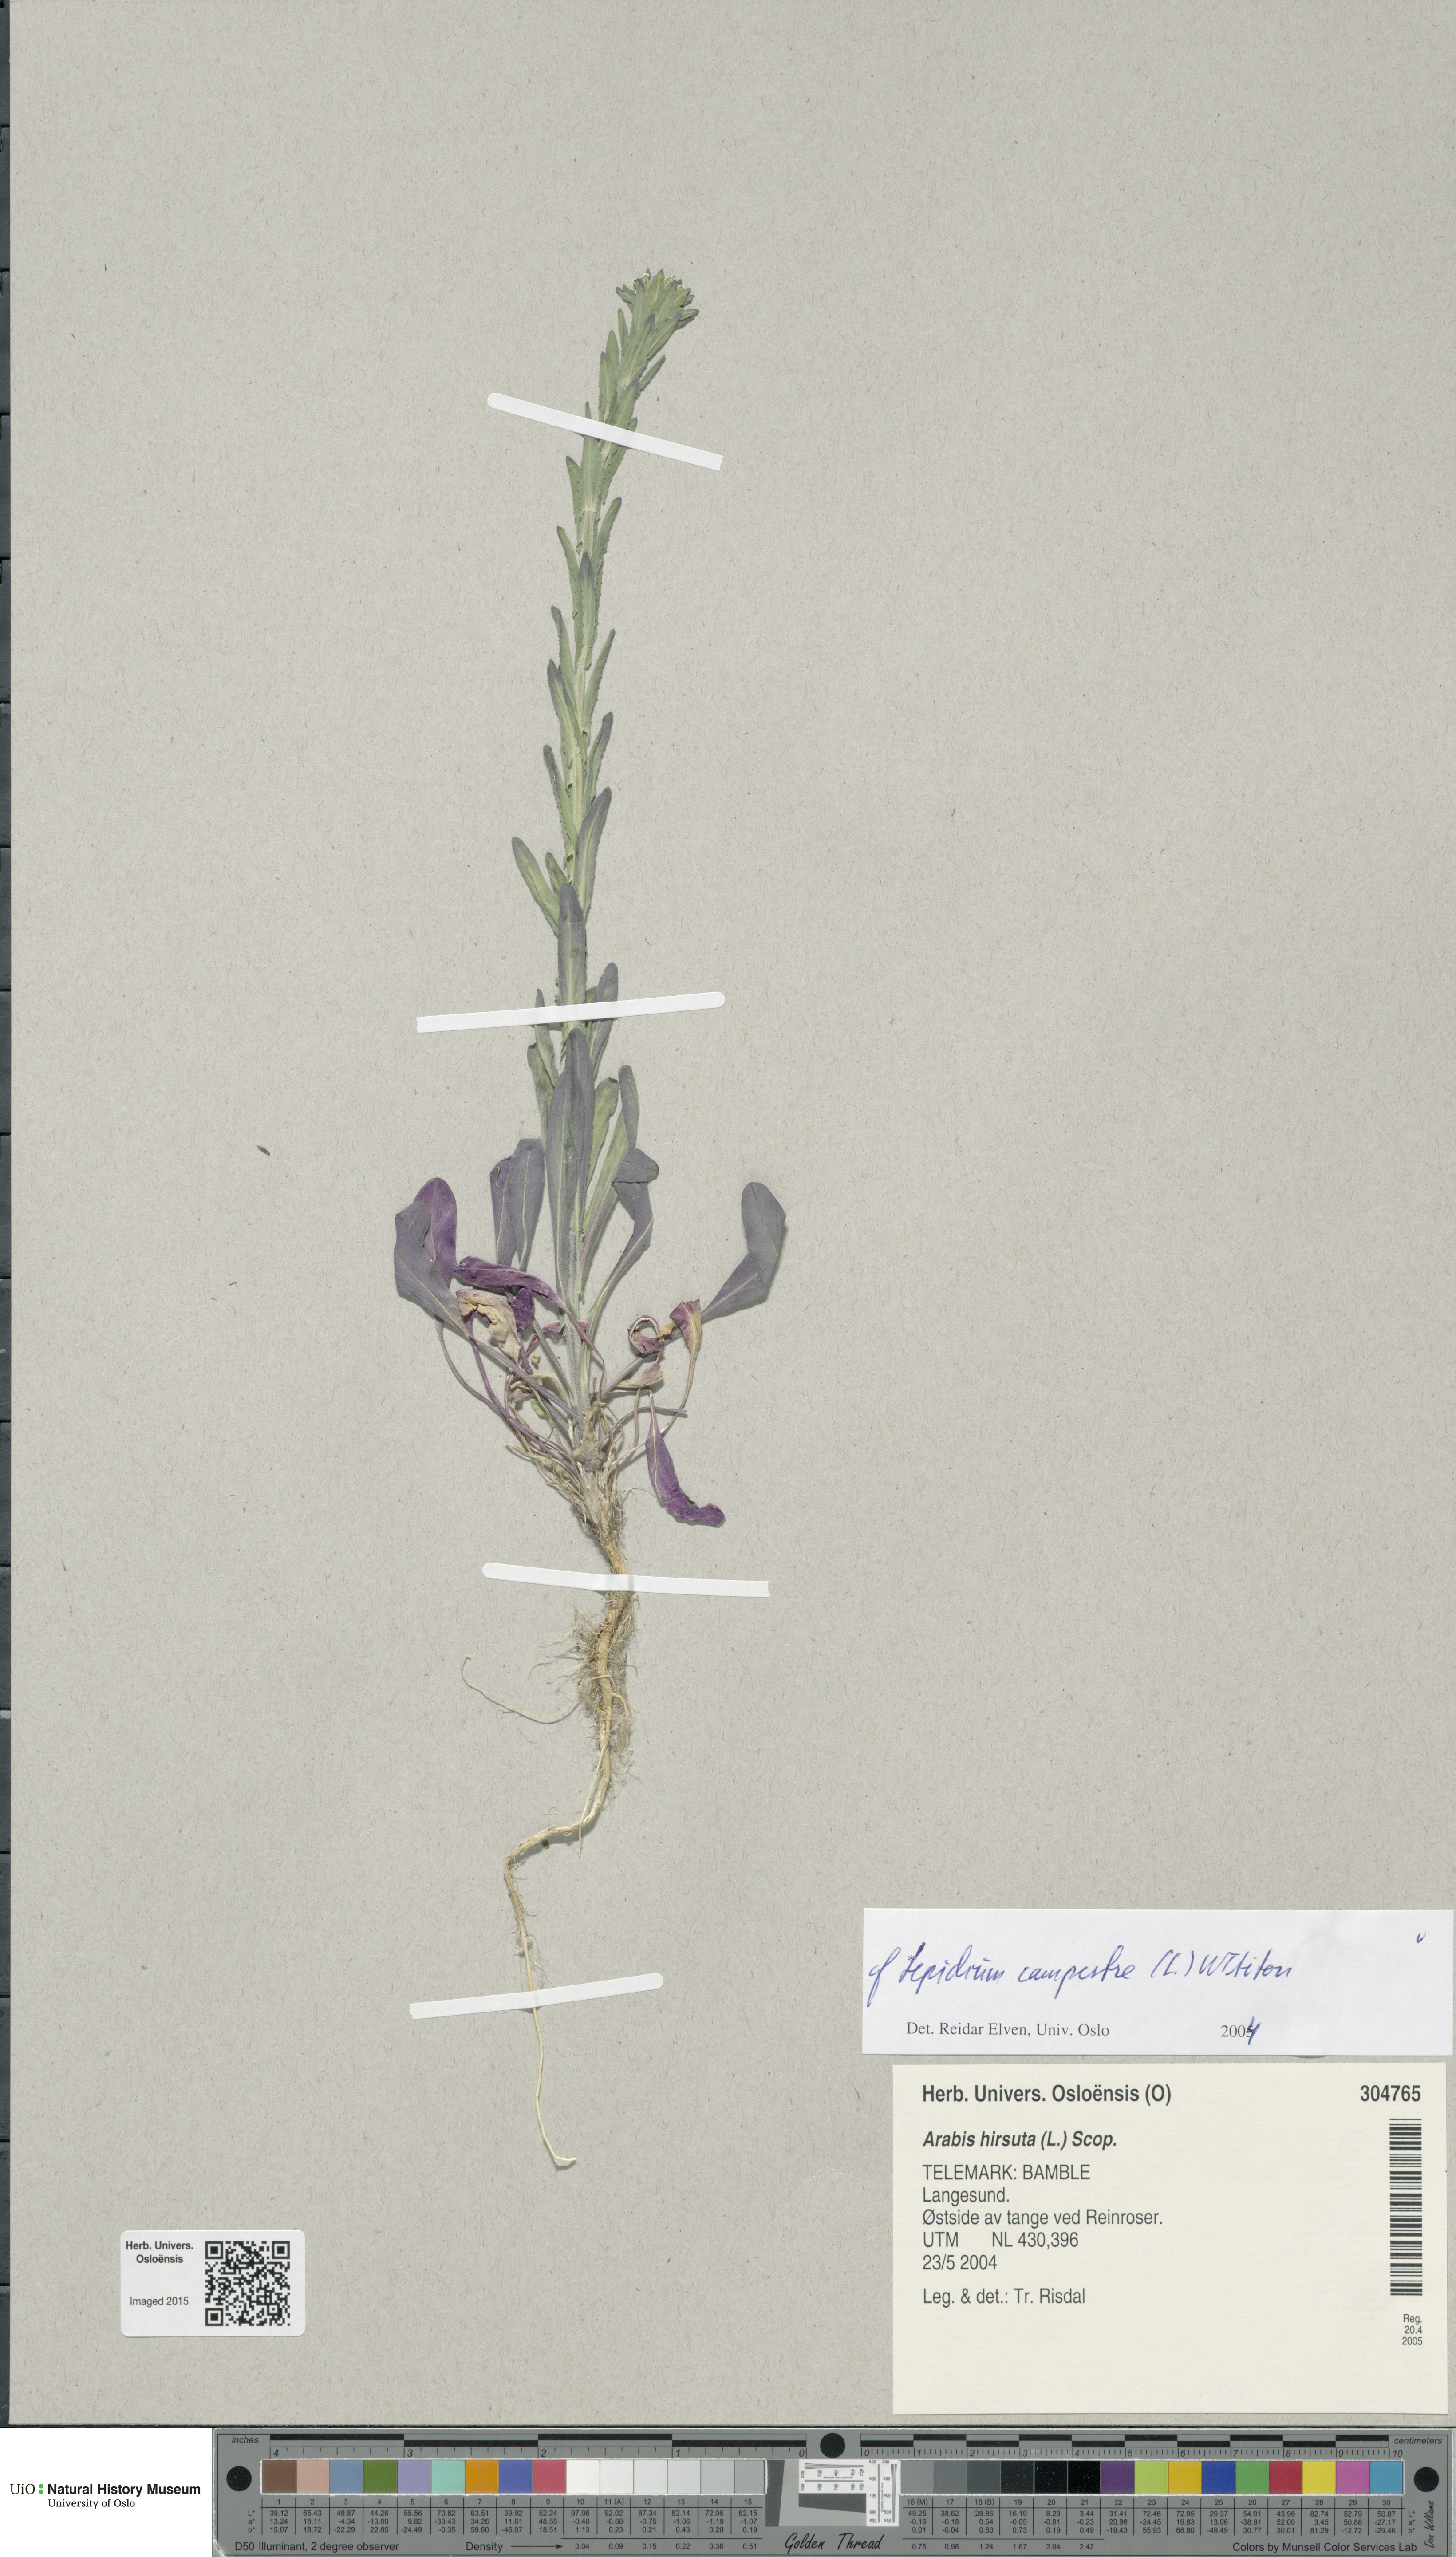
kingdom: Plantae
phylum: Tracheophyta
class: Magnoliopsida
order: Brassicales
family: Brassicaceae
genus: Lepidium
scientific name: Lepidium campestre
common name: Field pepperwort
